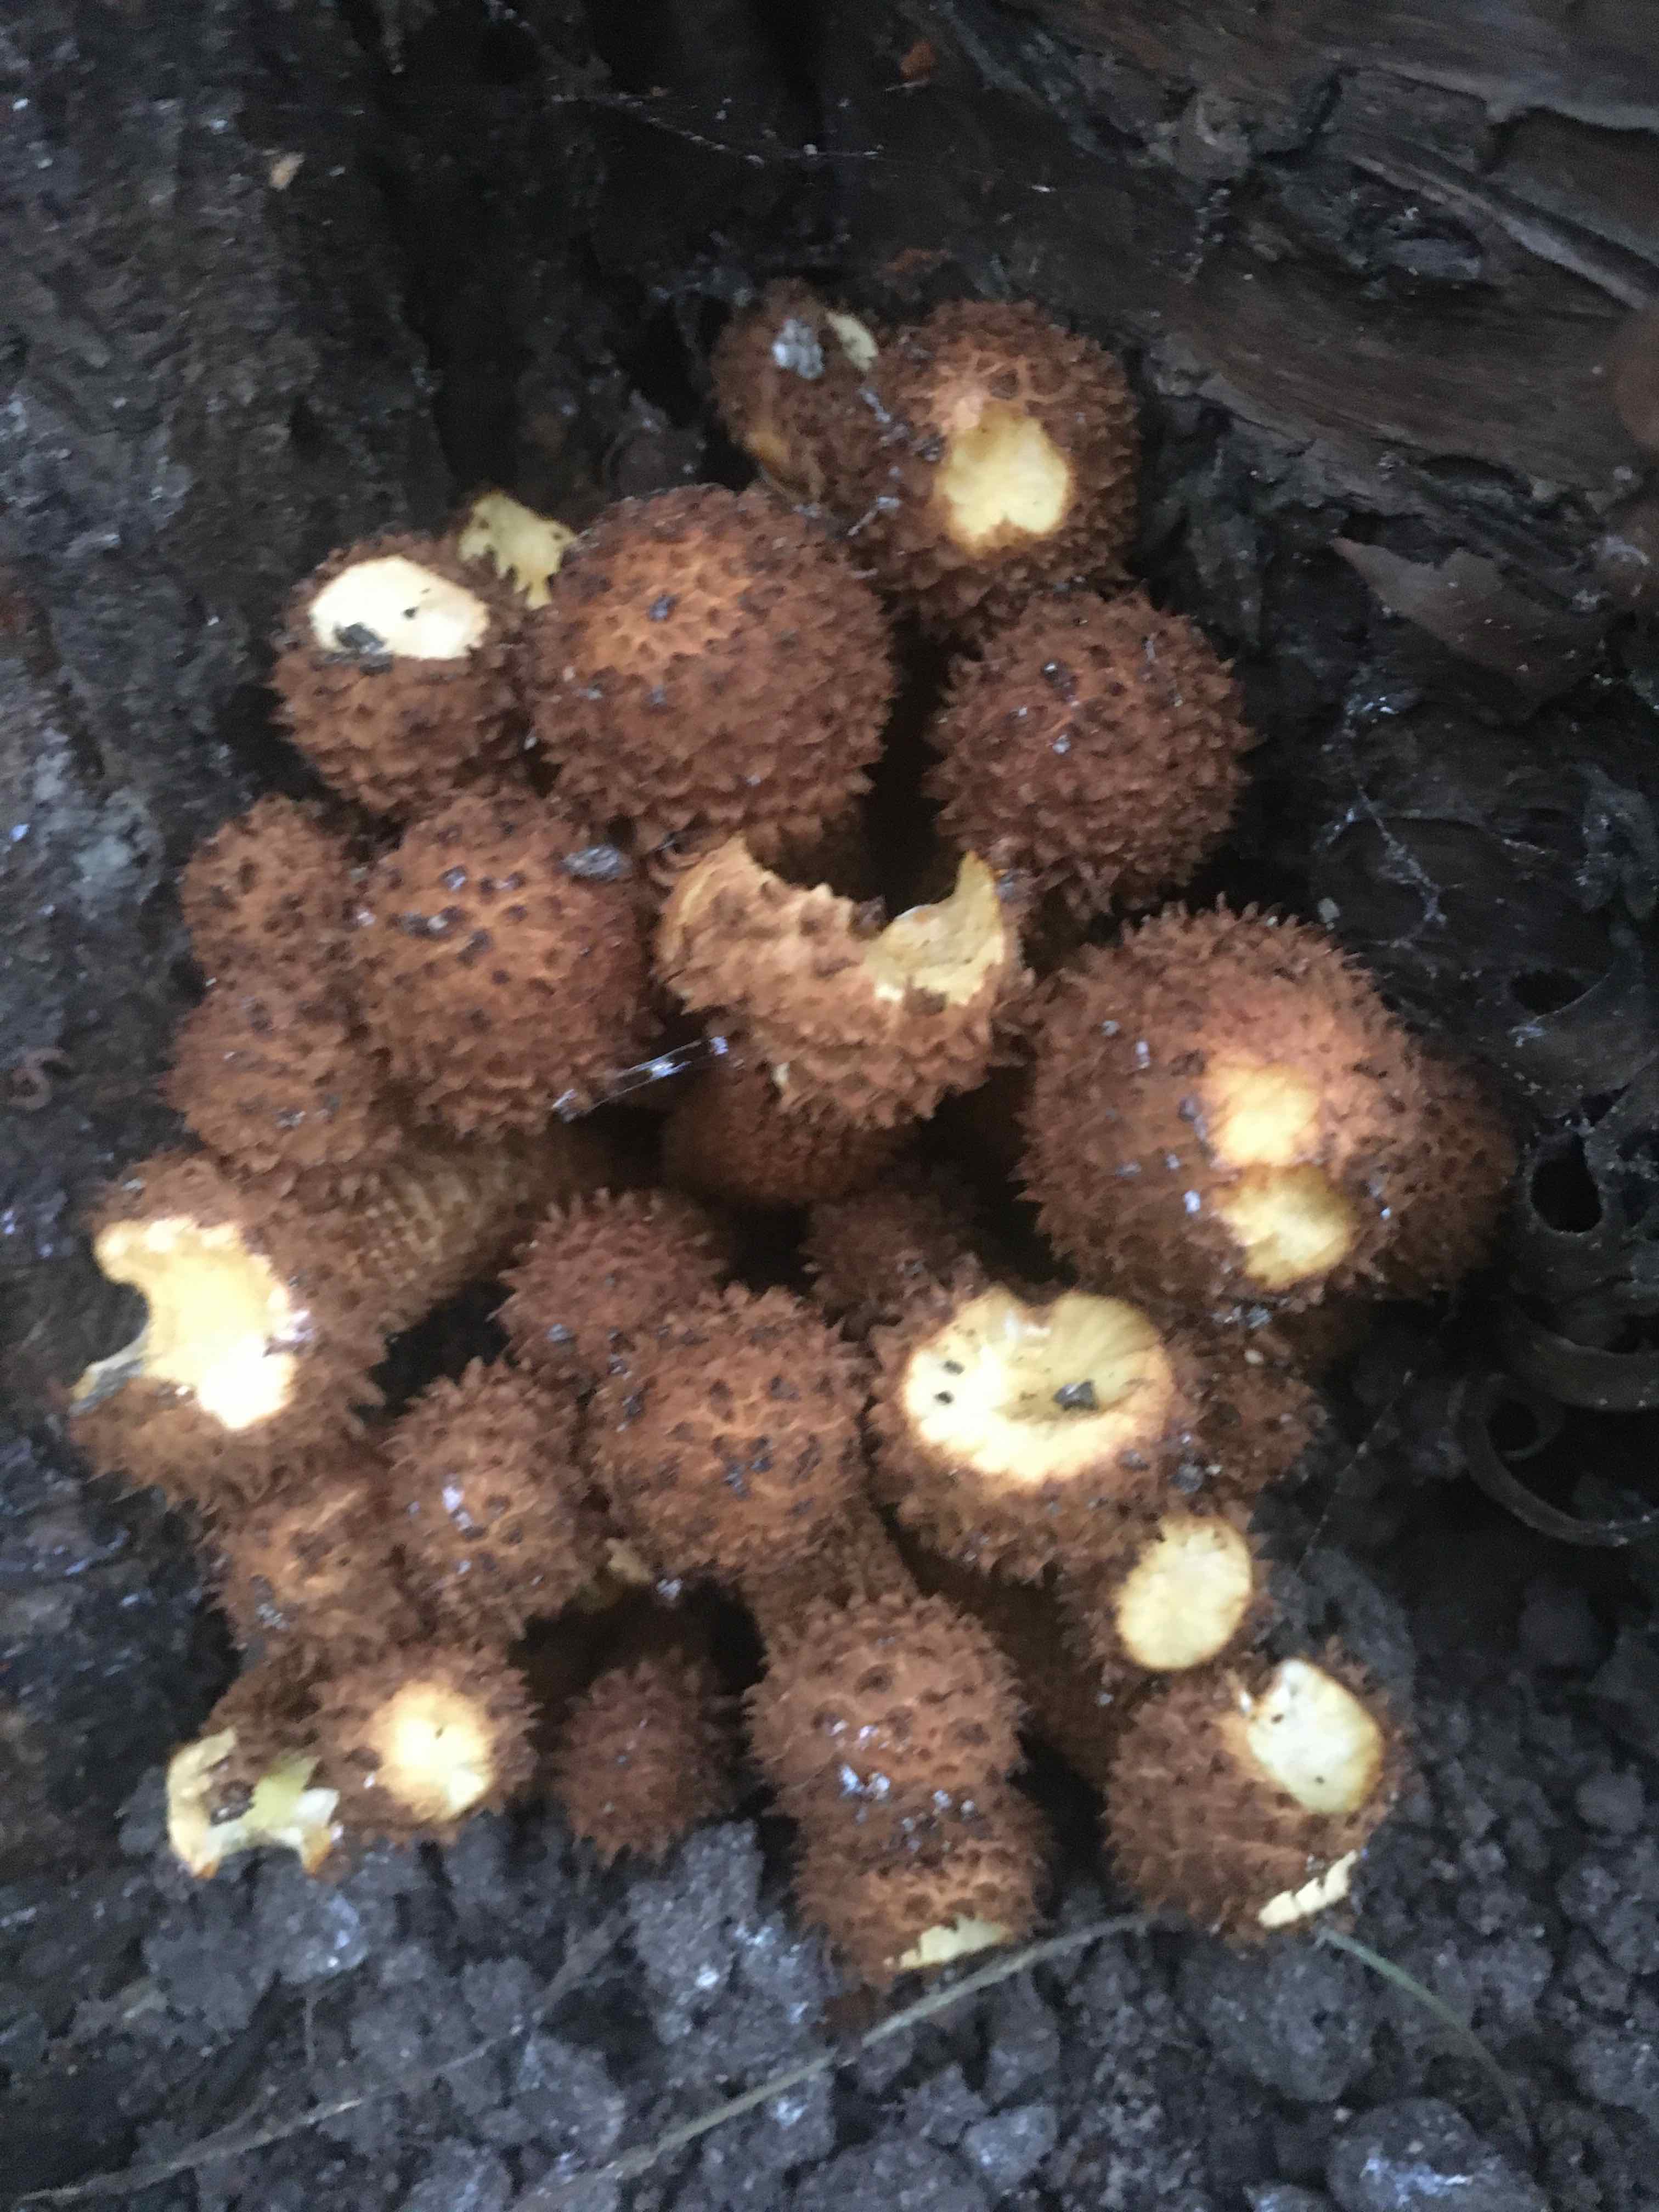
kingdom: Fungi
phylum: Basidiomycota
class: Agaricomycetes
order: Agaricales
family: Strophariaceae
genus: Pholiota
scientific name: Pholiota squarrosa
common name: krumskællet skælhat
